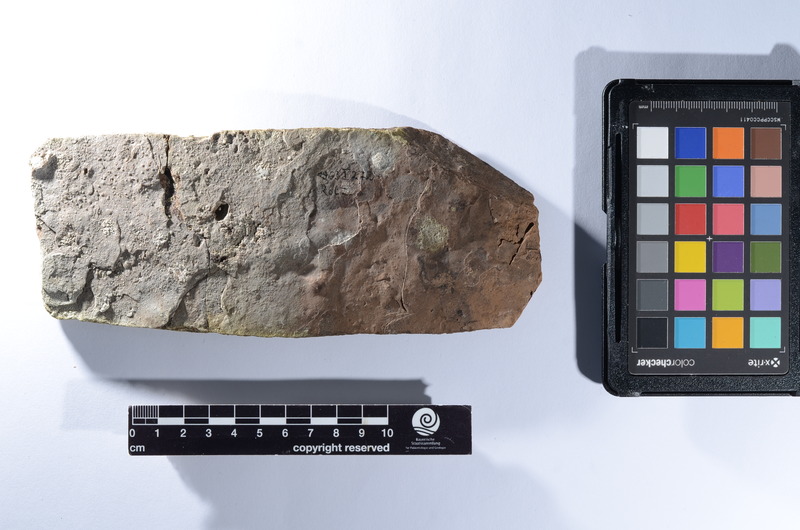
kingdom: Animalia
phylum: Chordata
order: Cypriniformes
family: Cyprinidae
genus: Leuciscus
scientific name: Leuciscus
